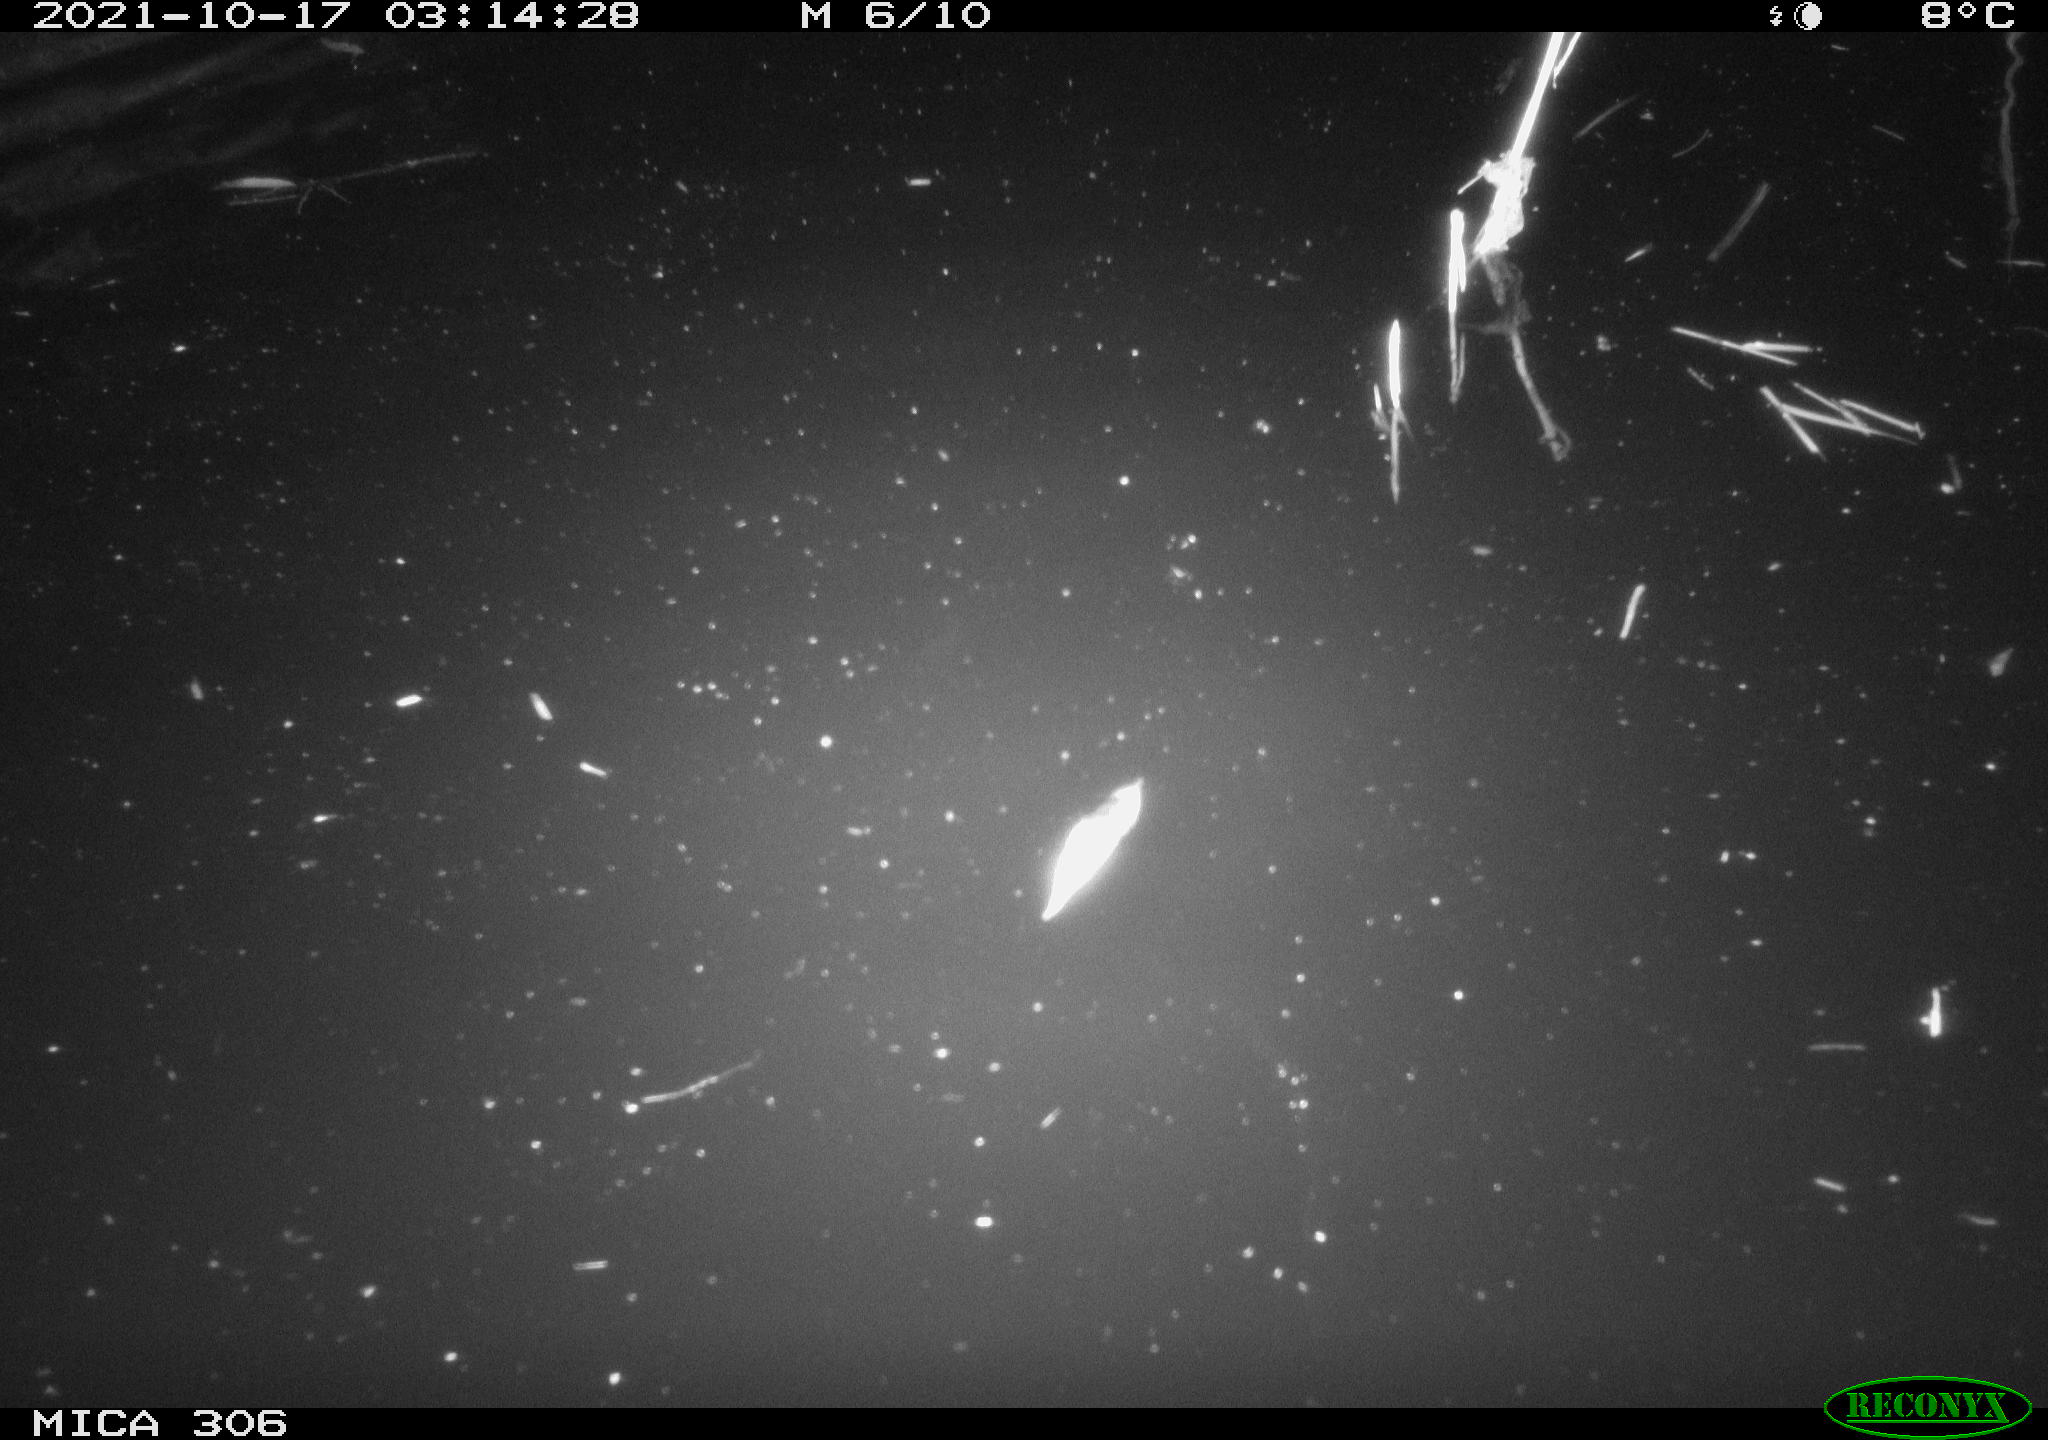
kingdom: Animalia
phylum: Chordata
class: Mammalia
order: Rodentia
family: Cricetidae
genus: Ondatra
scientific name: Ondatra zibethicus
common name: Muskrat
